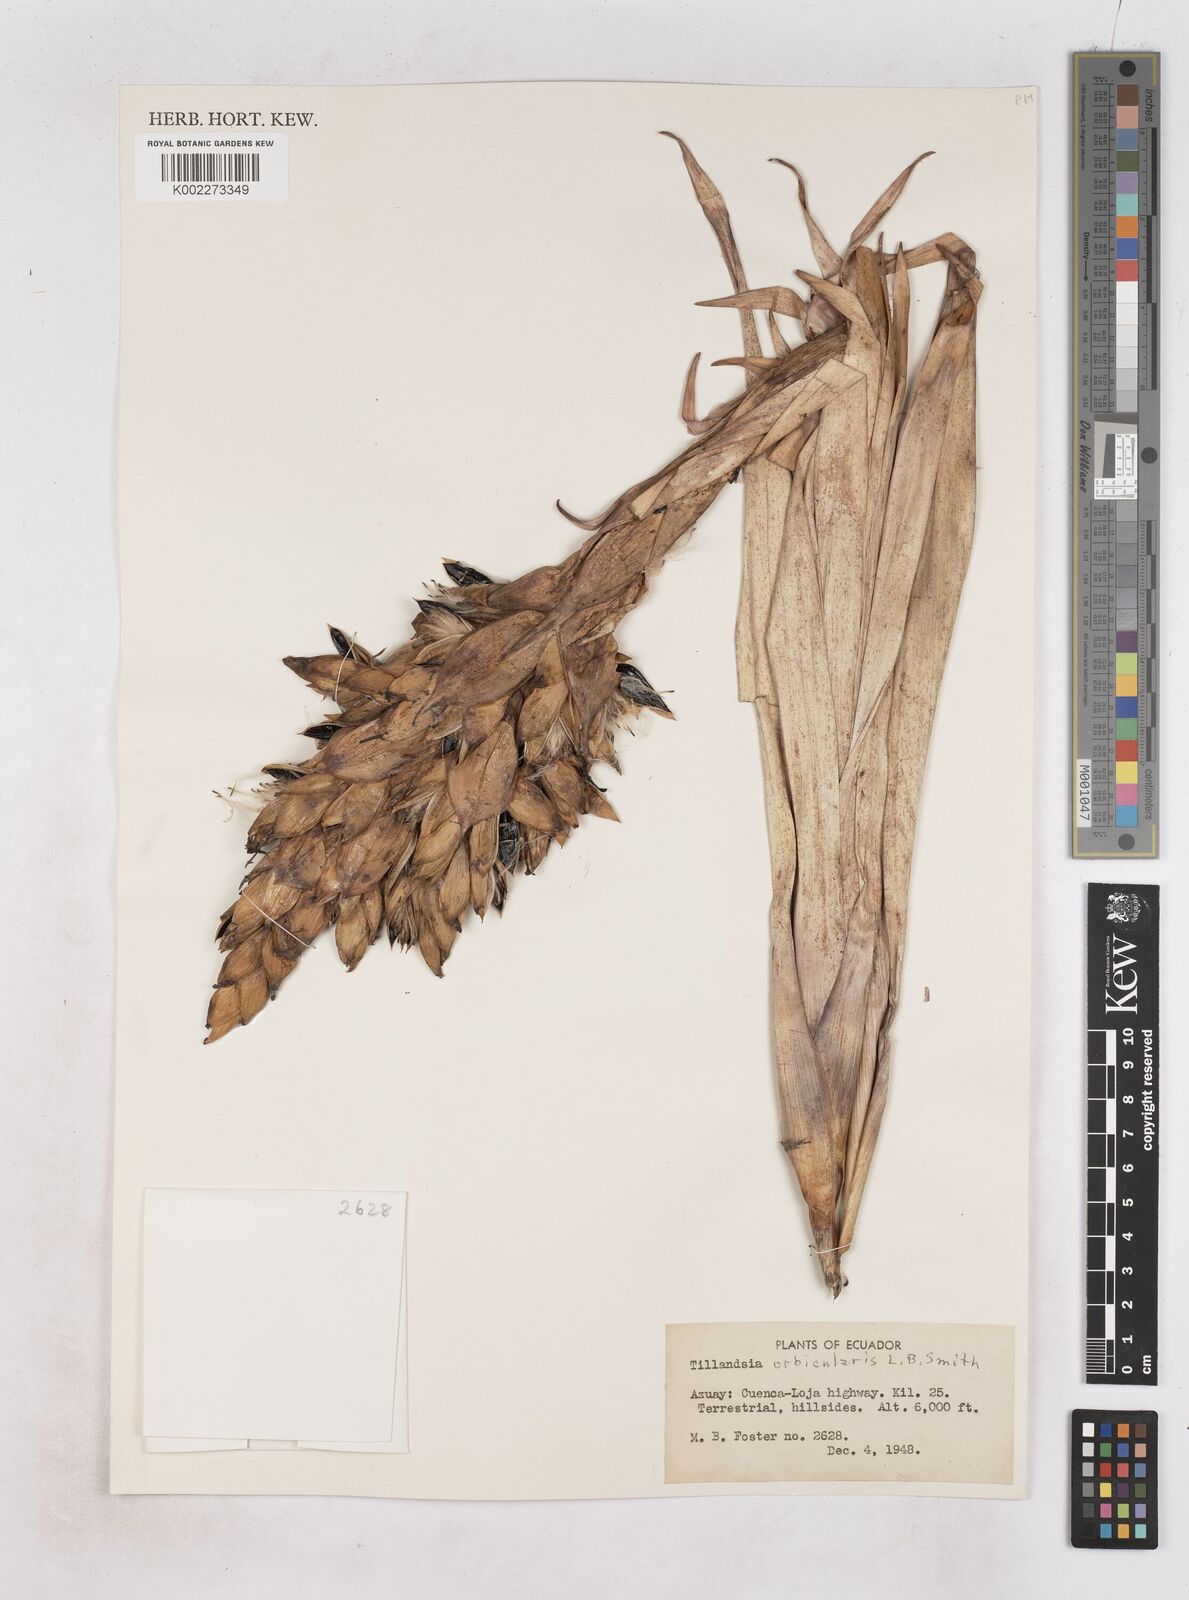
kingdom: Plantae
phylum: Tracheophyta
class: Liliopsida
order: Poales
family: Bromeliaceae
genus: Tillandsia
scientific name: Tillandsia orbicularis
